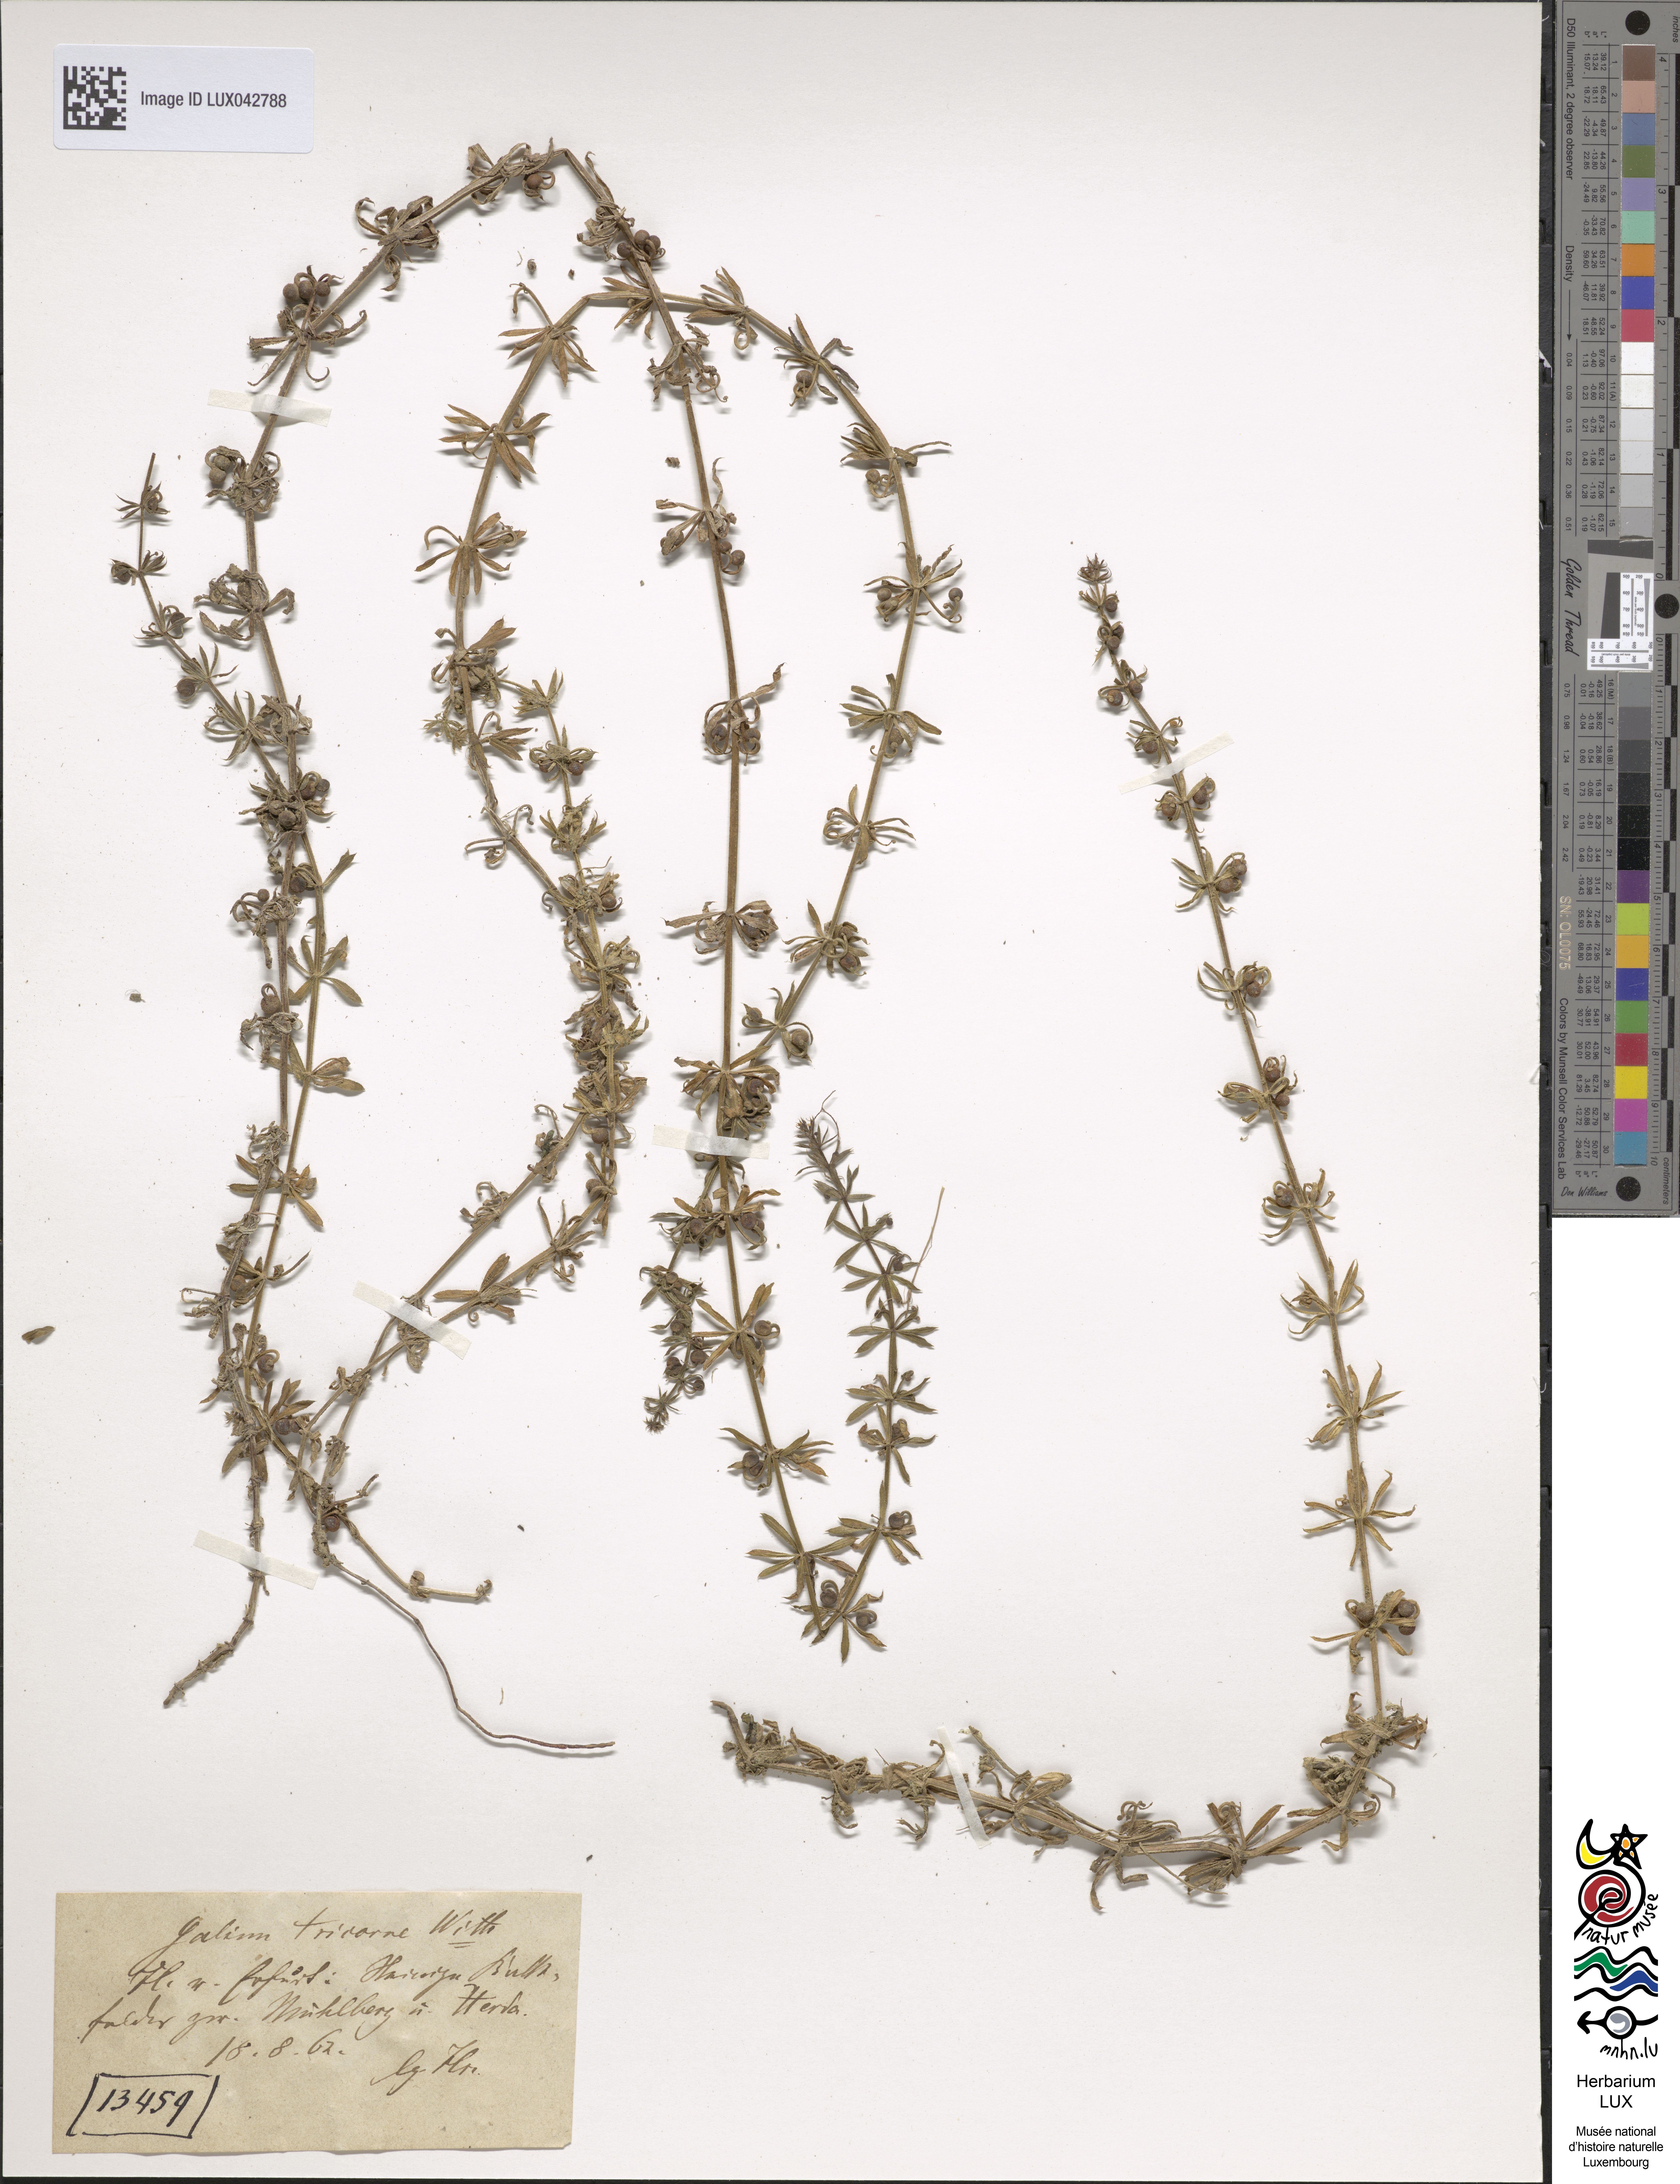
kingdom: Plantae
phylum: Tracheophyta
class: Magnoliopsida
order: Gentianales
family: Rubiaceae
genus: Galium
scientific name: Galium tricornutum
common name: Corn cleavers
